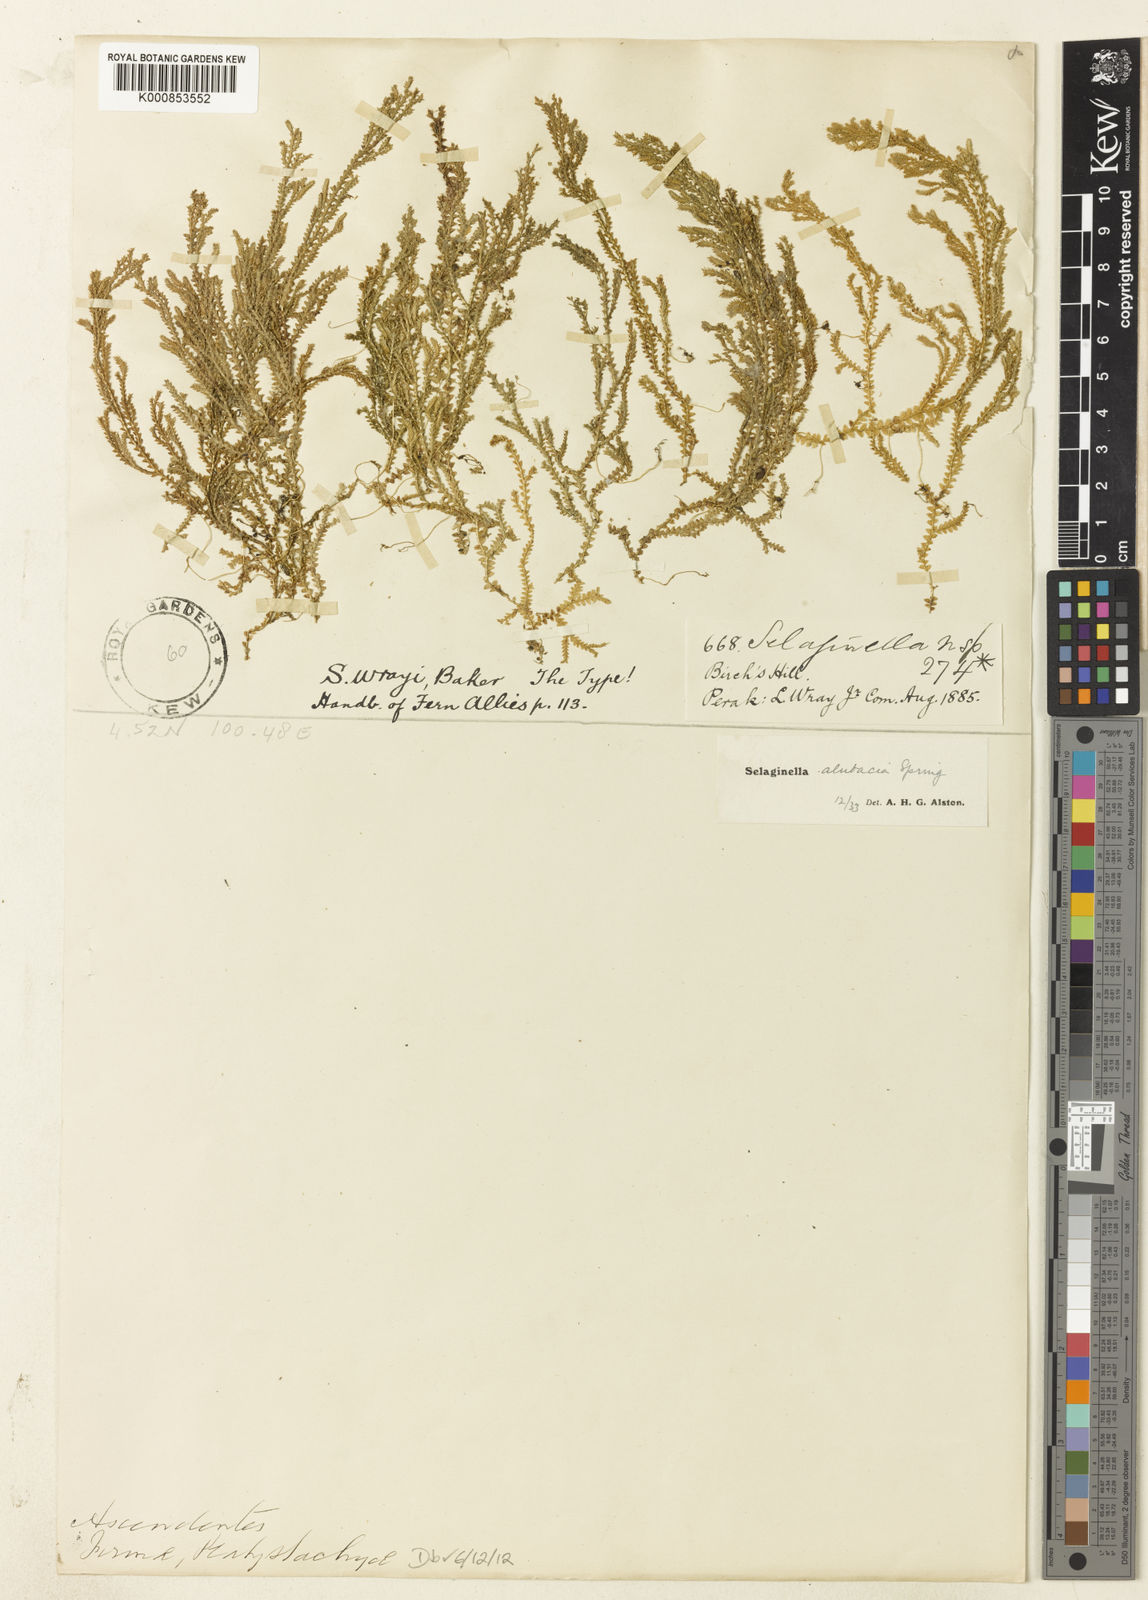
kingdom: Plantae
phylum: Tracheophyta
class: Lycopodiopsida
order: Selaginellales
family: Selaginellaceae
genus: Selaginella
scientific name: Selaginella
